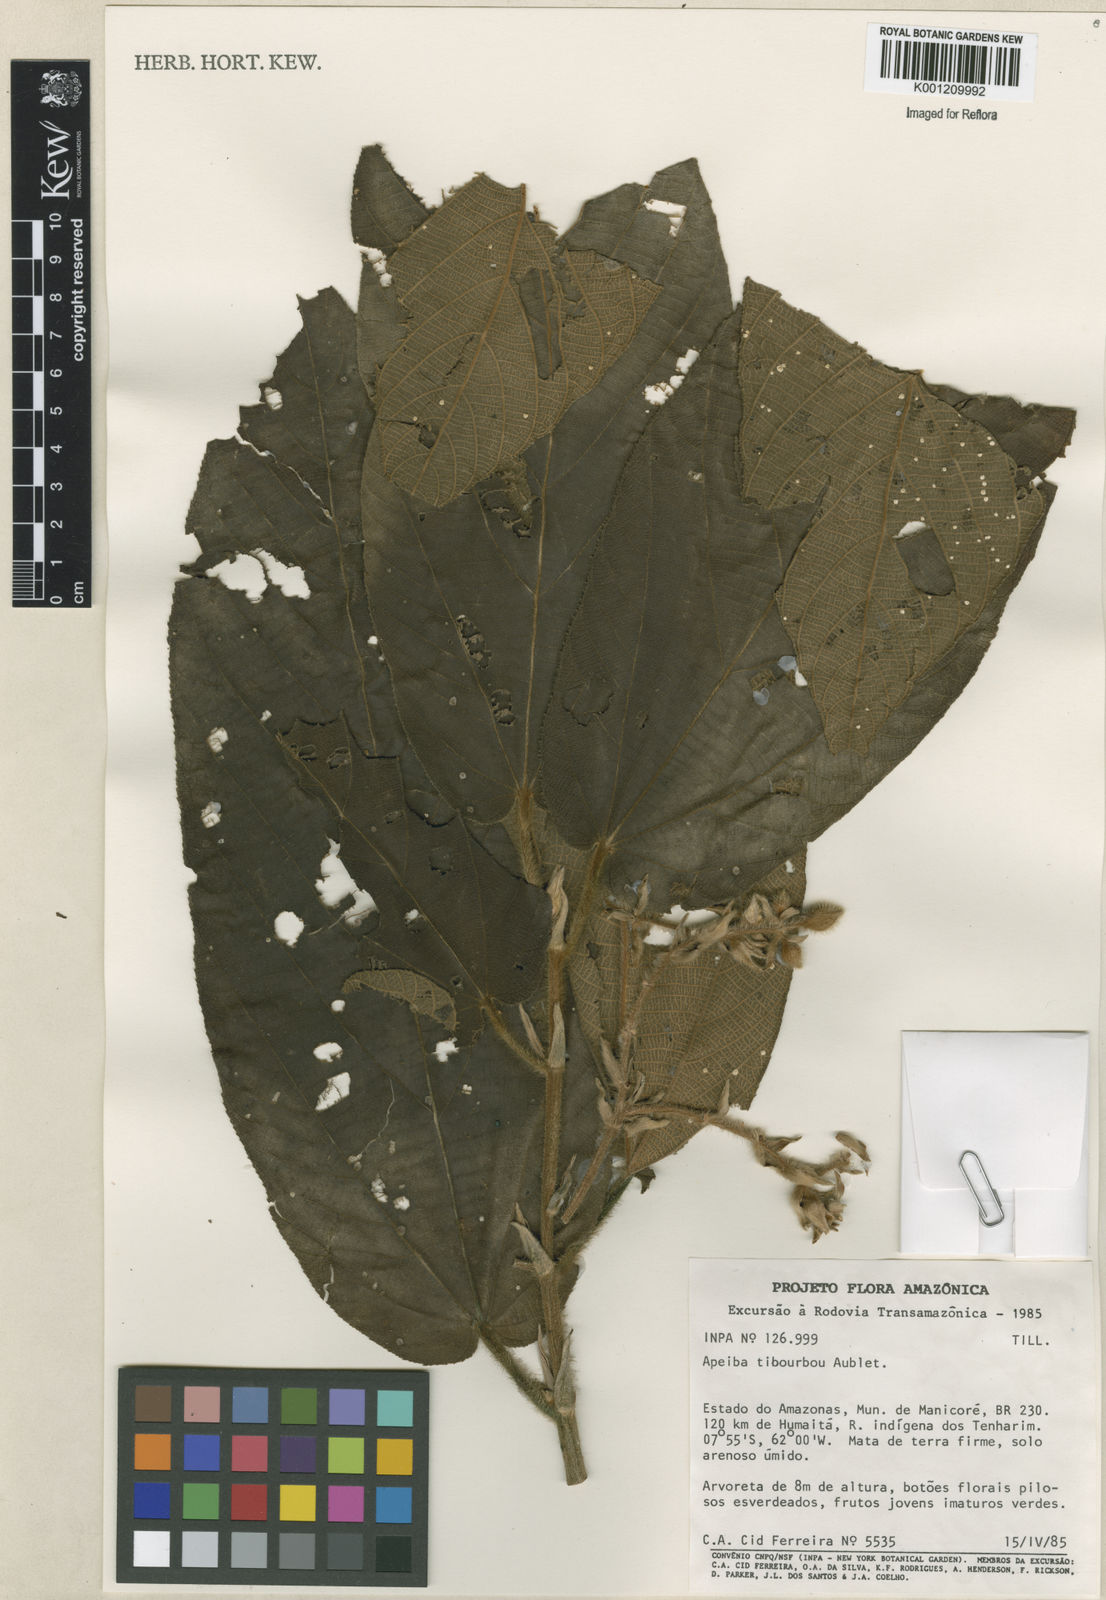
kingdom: Plantae
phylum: Tracheophyta
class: Magnoliopsida
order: Malvales
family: Malvaceae
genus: Apeiba
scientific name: Apeiba tibourbou
